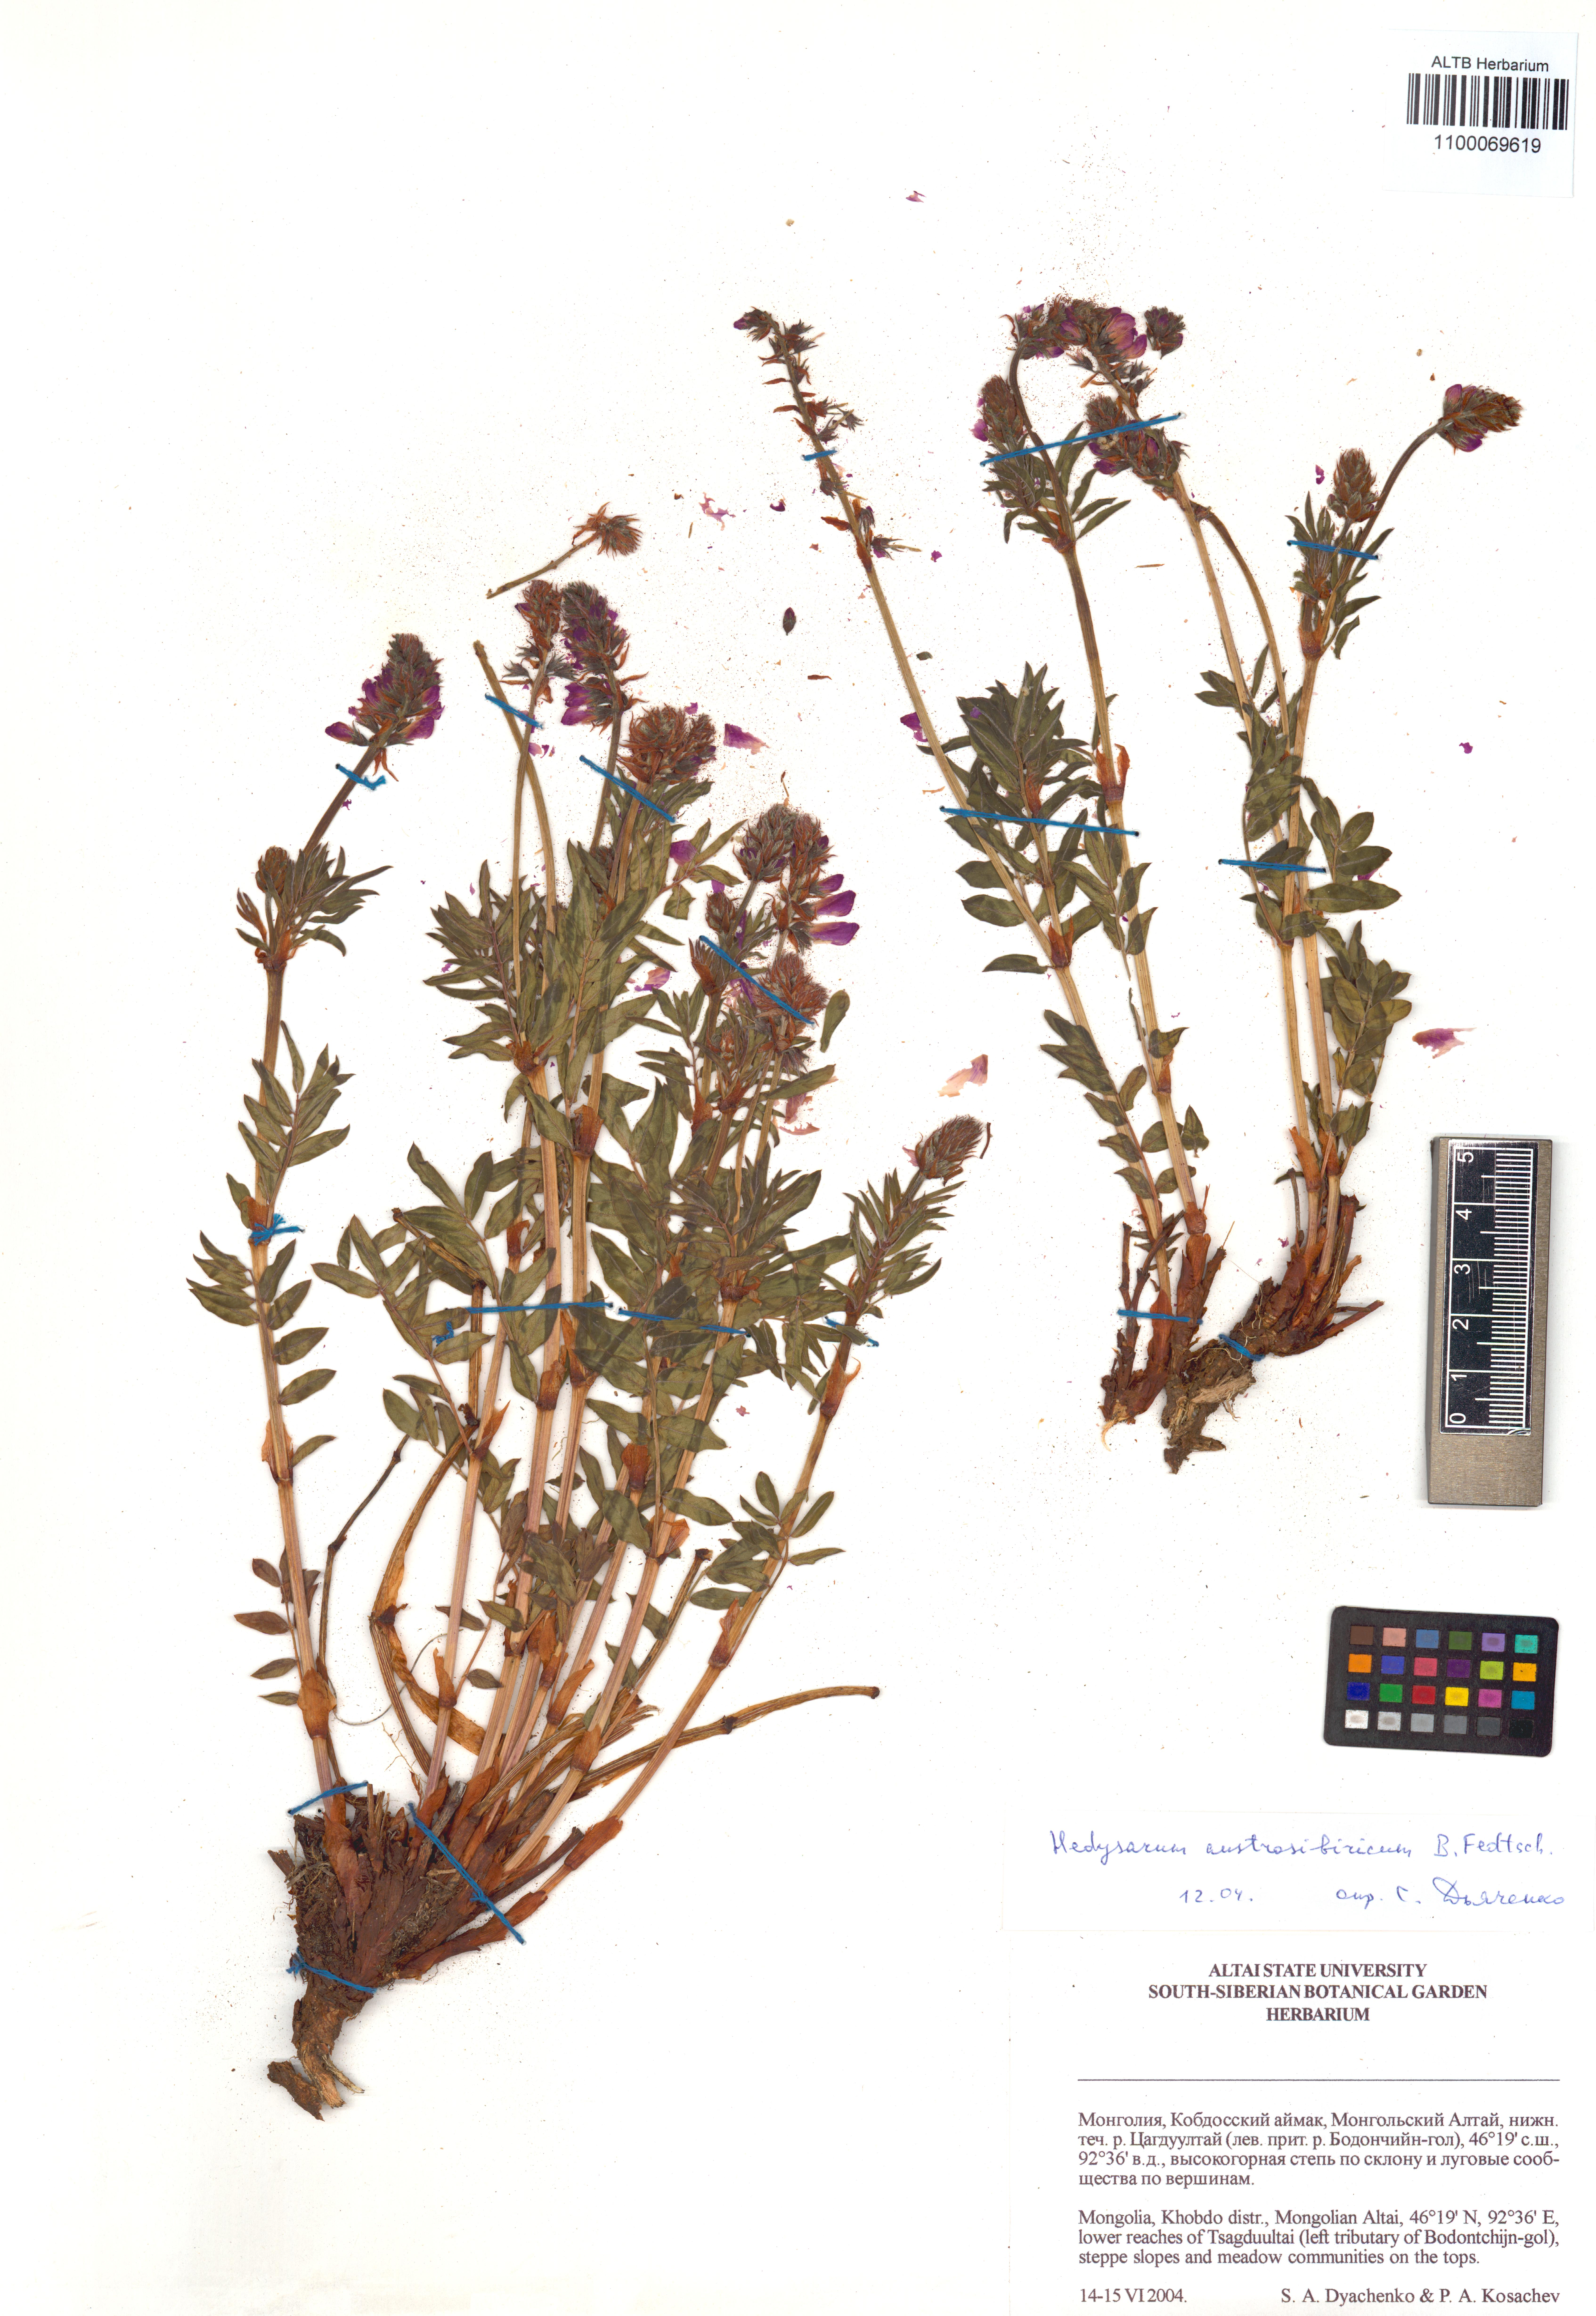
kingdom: Plantae
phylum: Tracheophyta
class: Magnoliopsida
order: Fabales
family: Fabaceae
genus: Hedysarum
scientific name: Hedysarum neglectum
